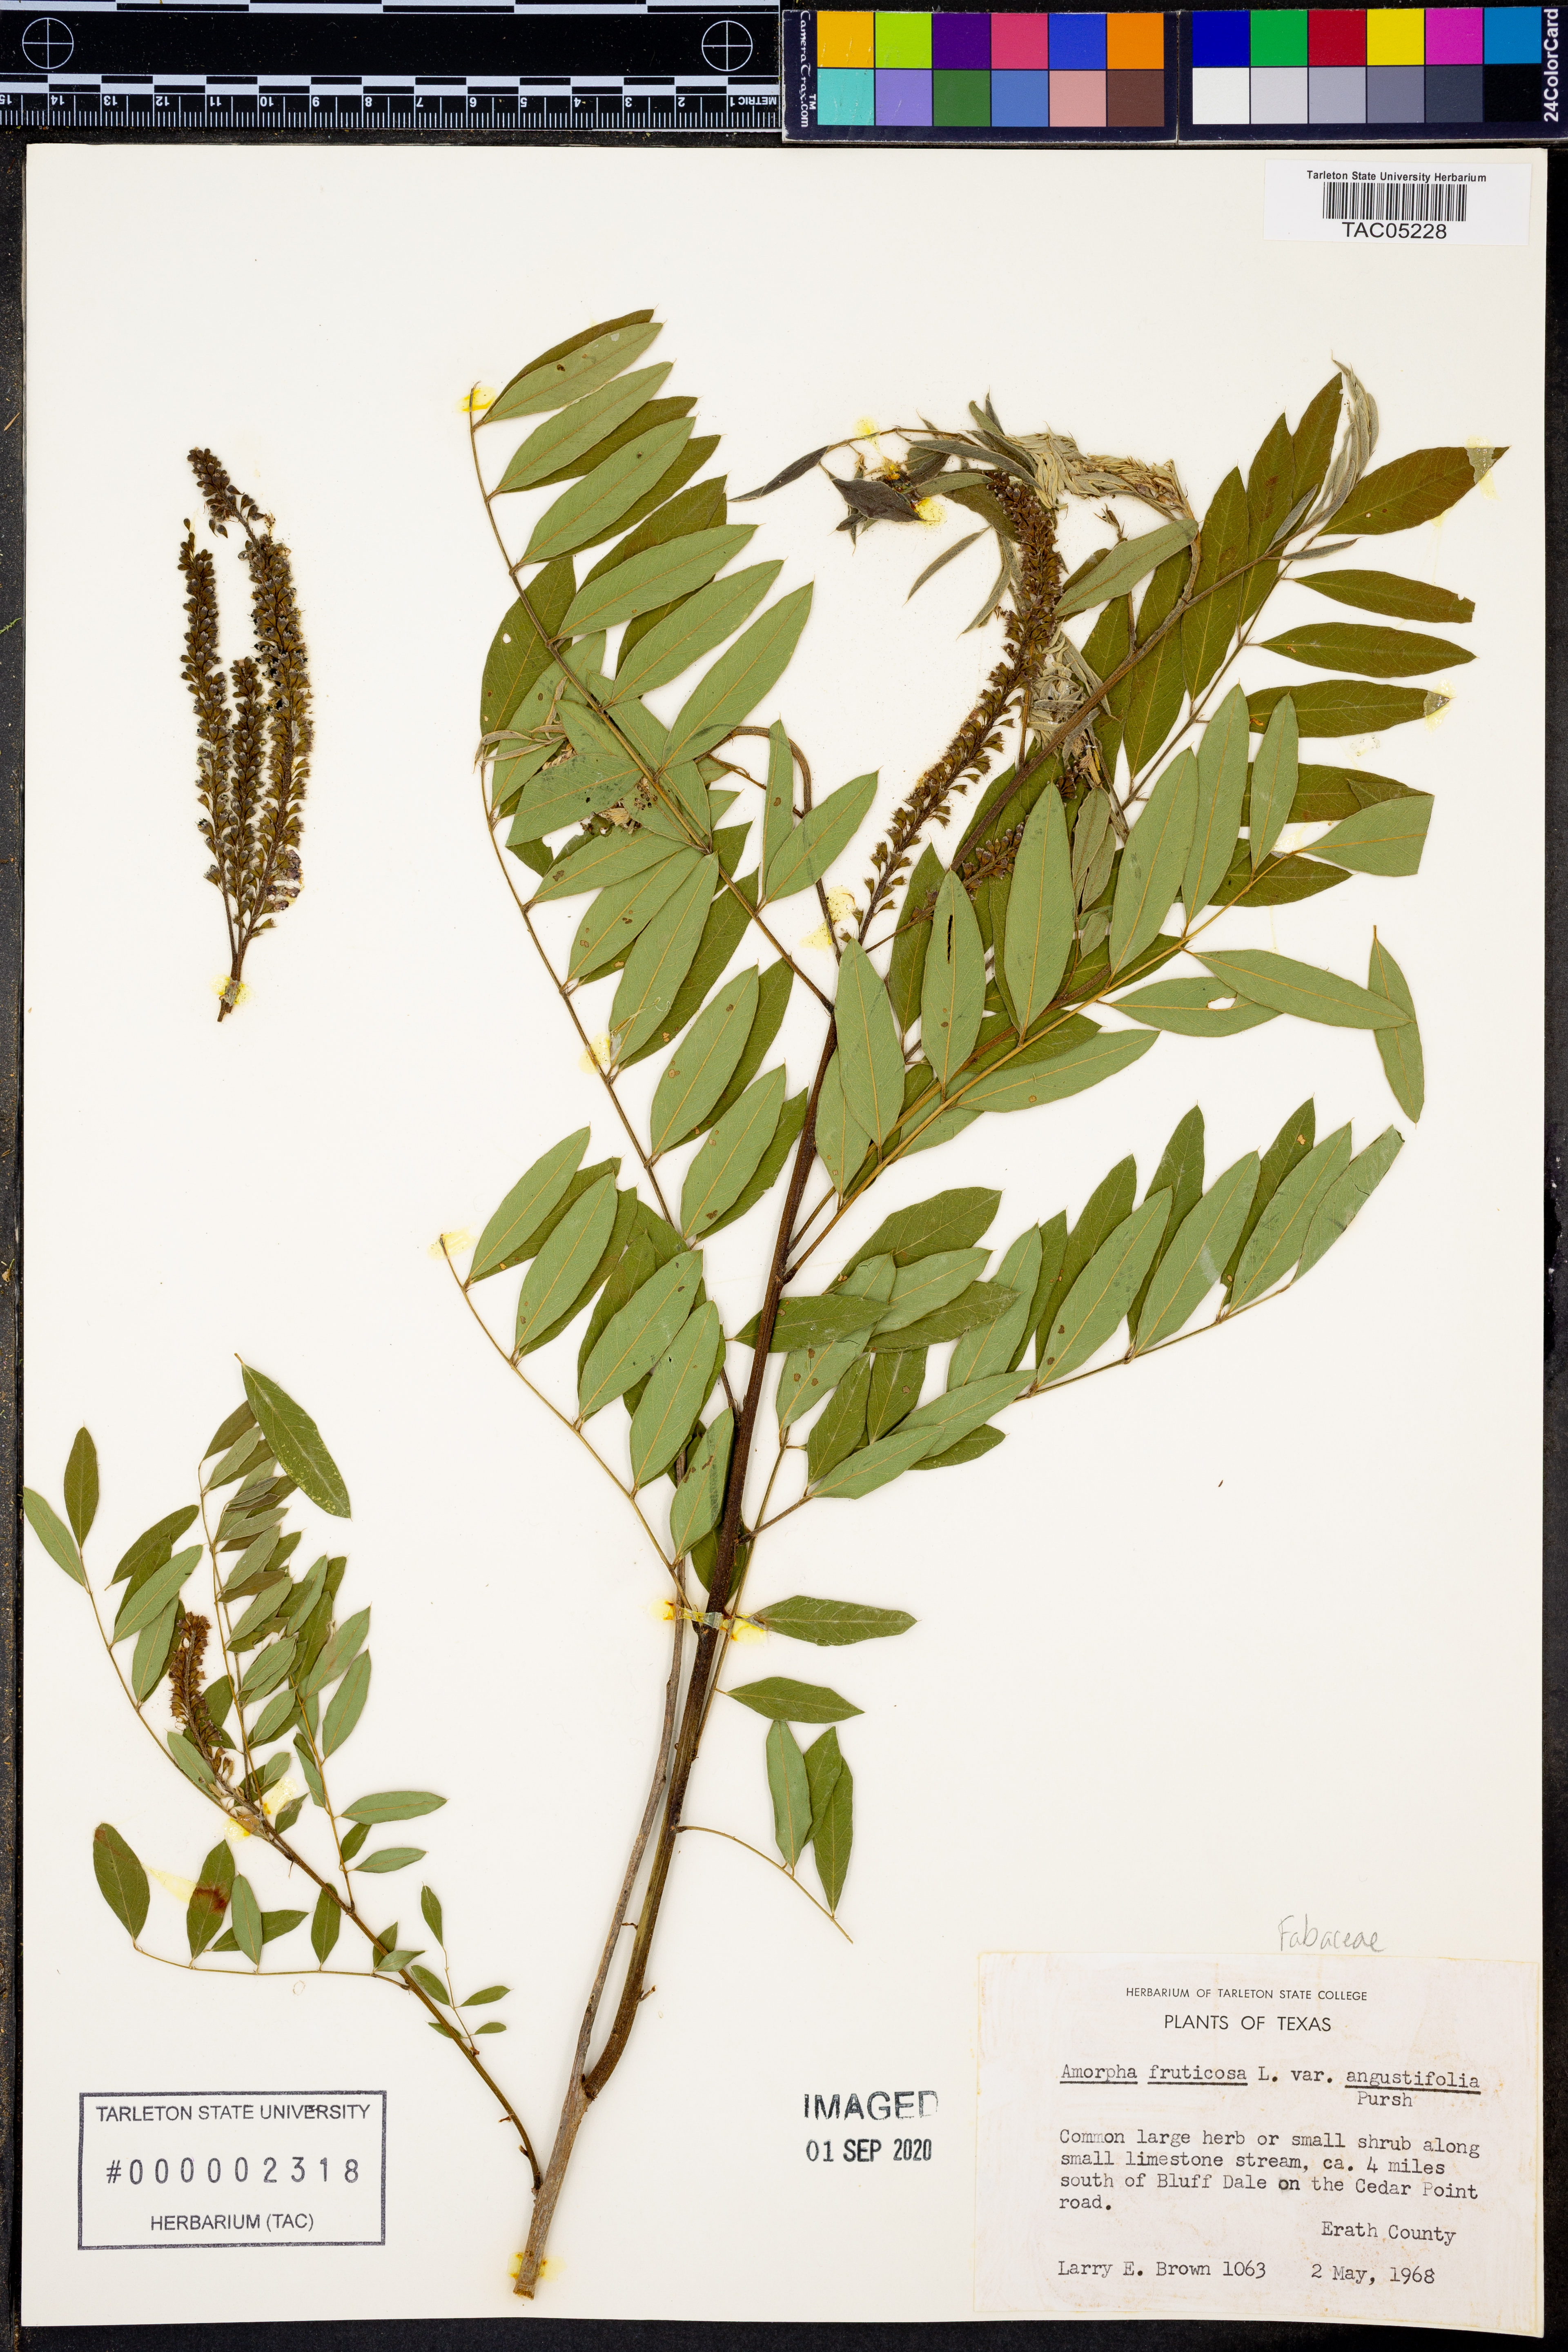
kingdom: Plantae
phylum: Tracheophyta
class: Magnoliopsida
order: Fabales
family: Fabaceae
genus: Amorpha
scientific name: Amorpha fruticosa
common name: False indigo
